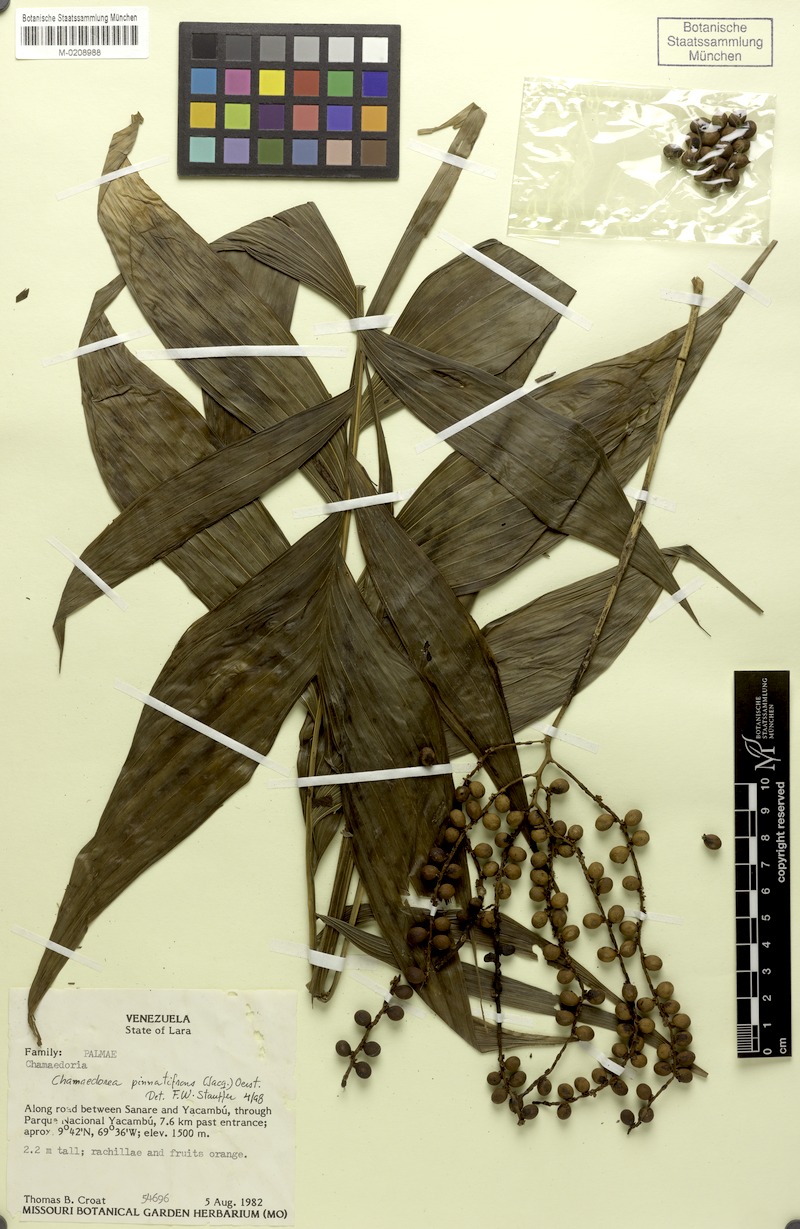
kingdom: Plantae
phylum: Tracheophyta
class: Liliopsida
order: Arecales
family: Arecaceae
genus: Chamaedorea
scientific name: Chamaedorea pinnatifrons
